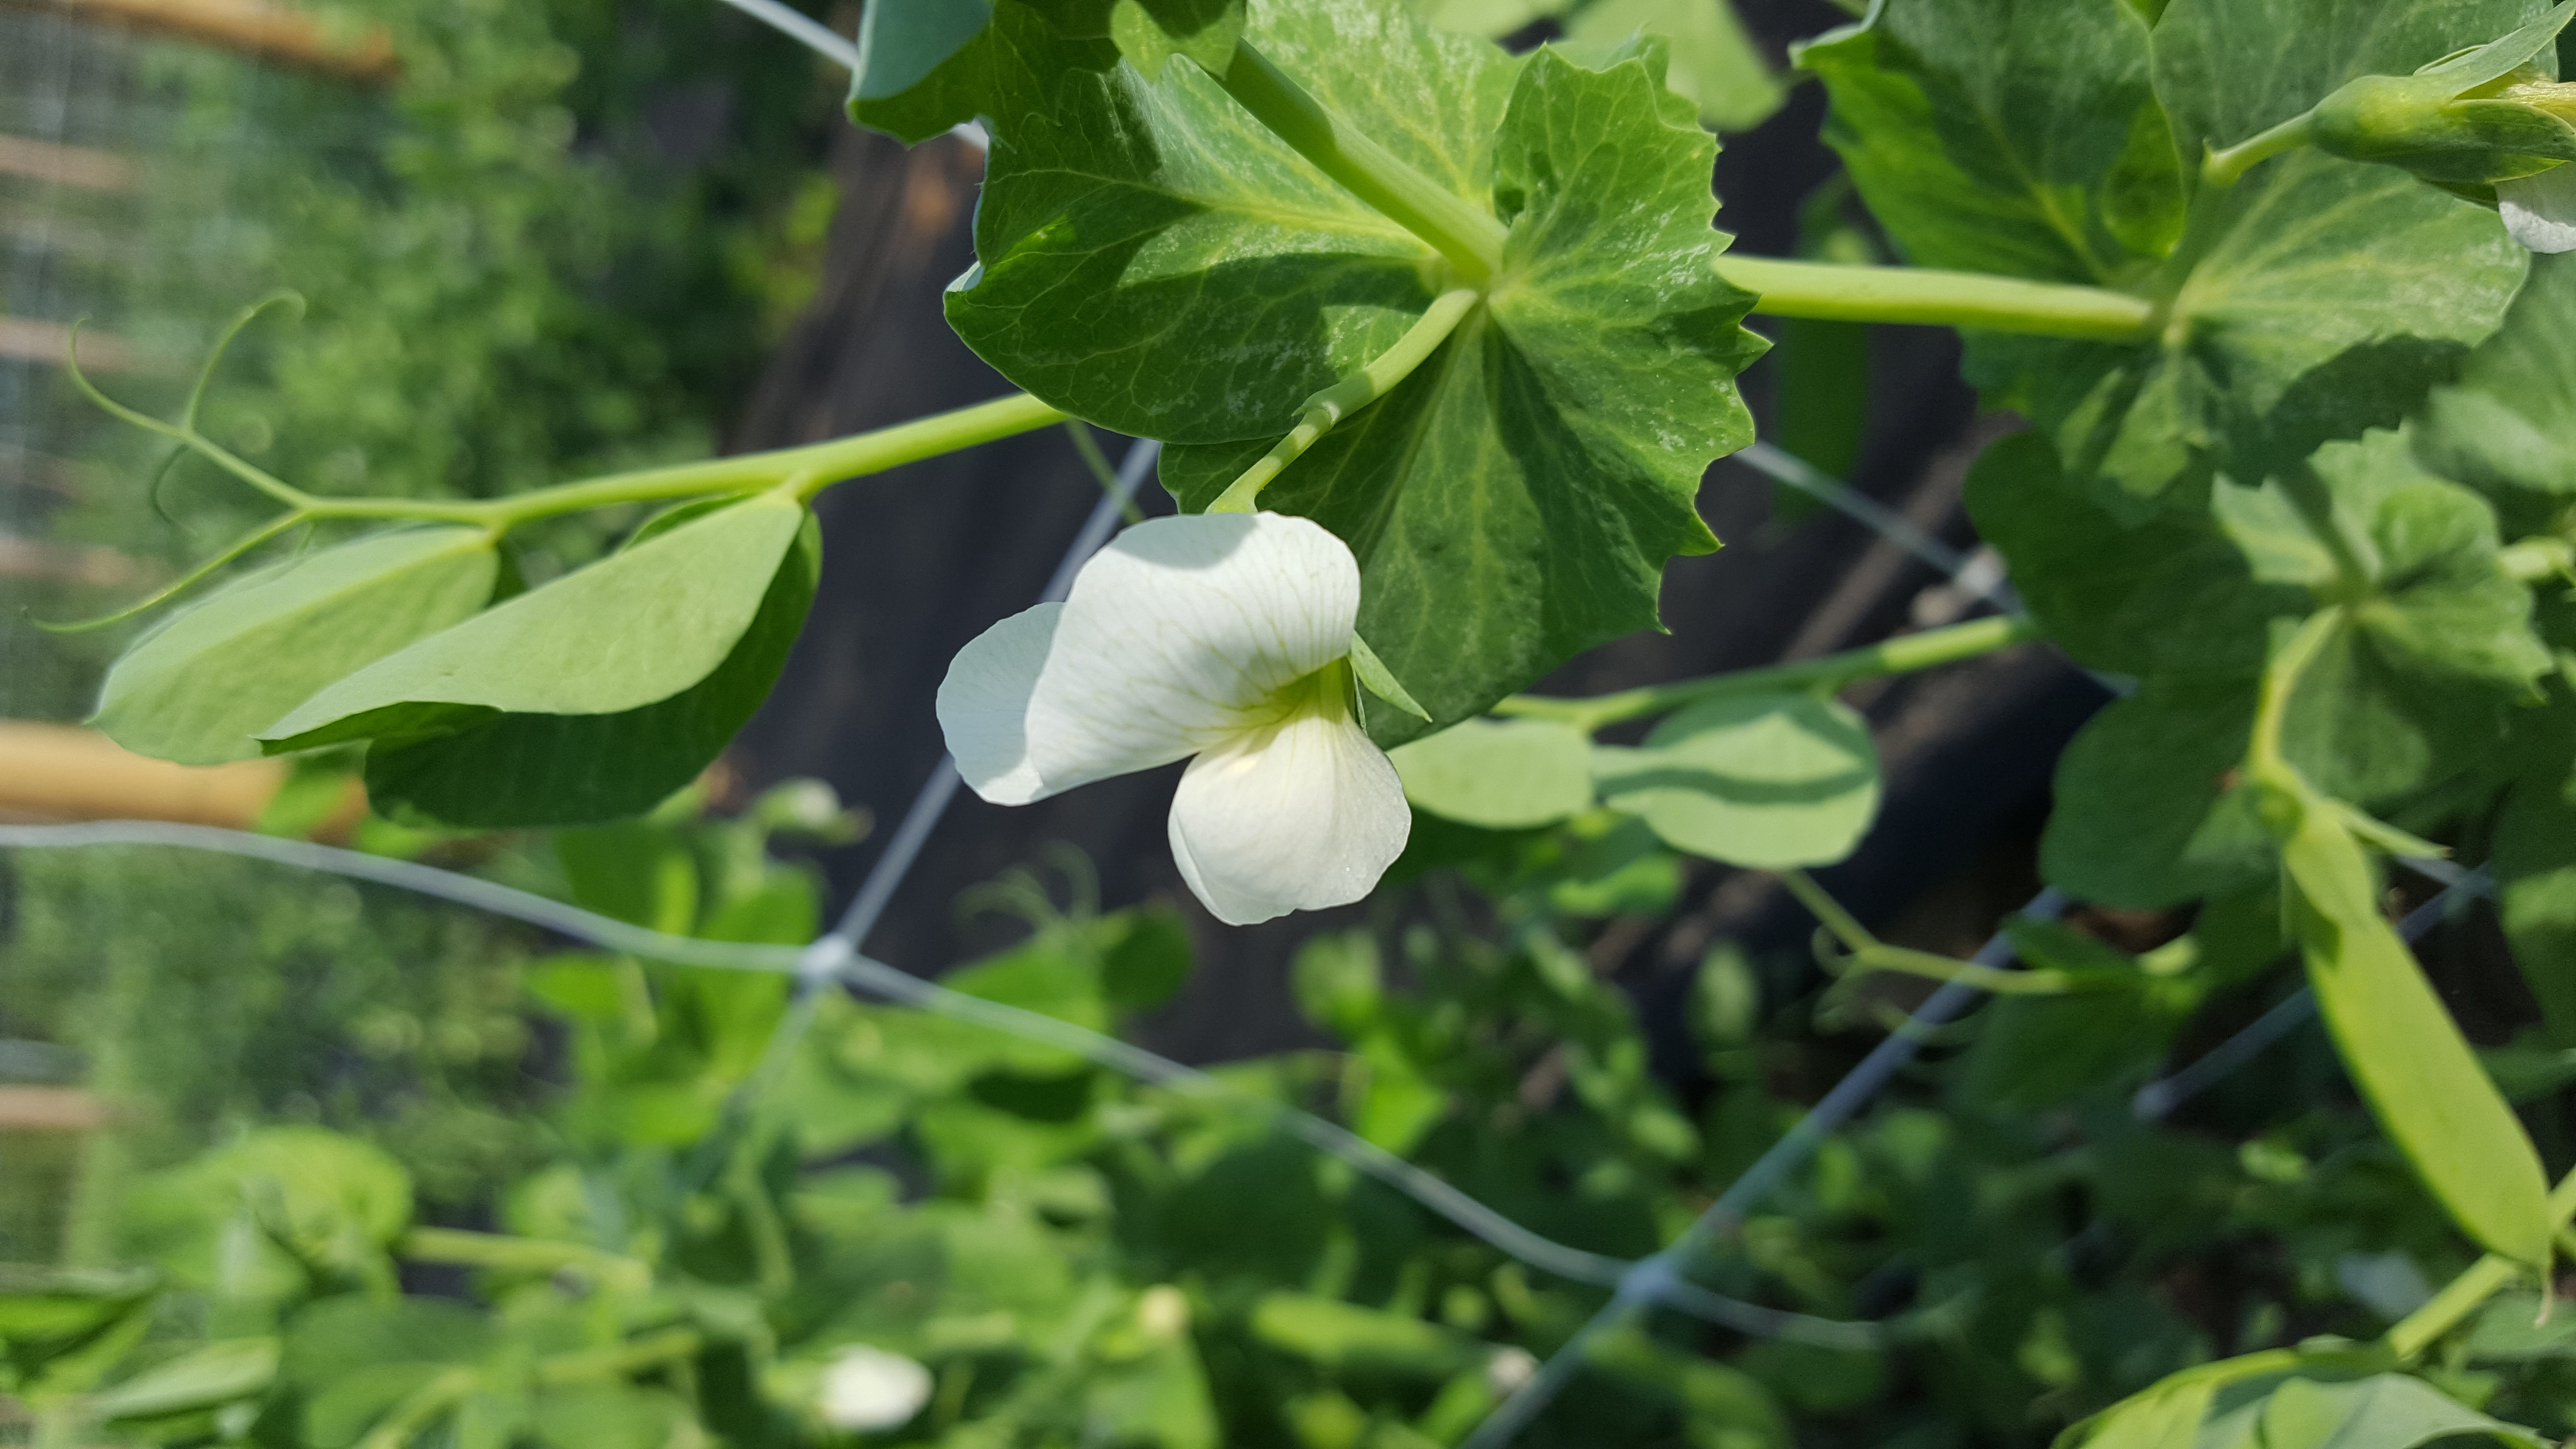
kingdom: Plantae
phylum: Tracheophyta
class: Magnoliopsida
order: Fabales
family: Fabaceae
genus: Lathyrus
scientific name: Lathyrus oleraceus
